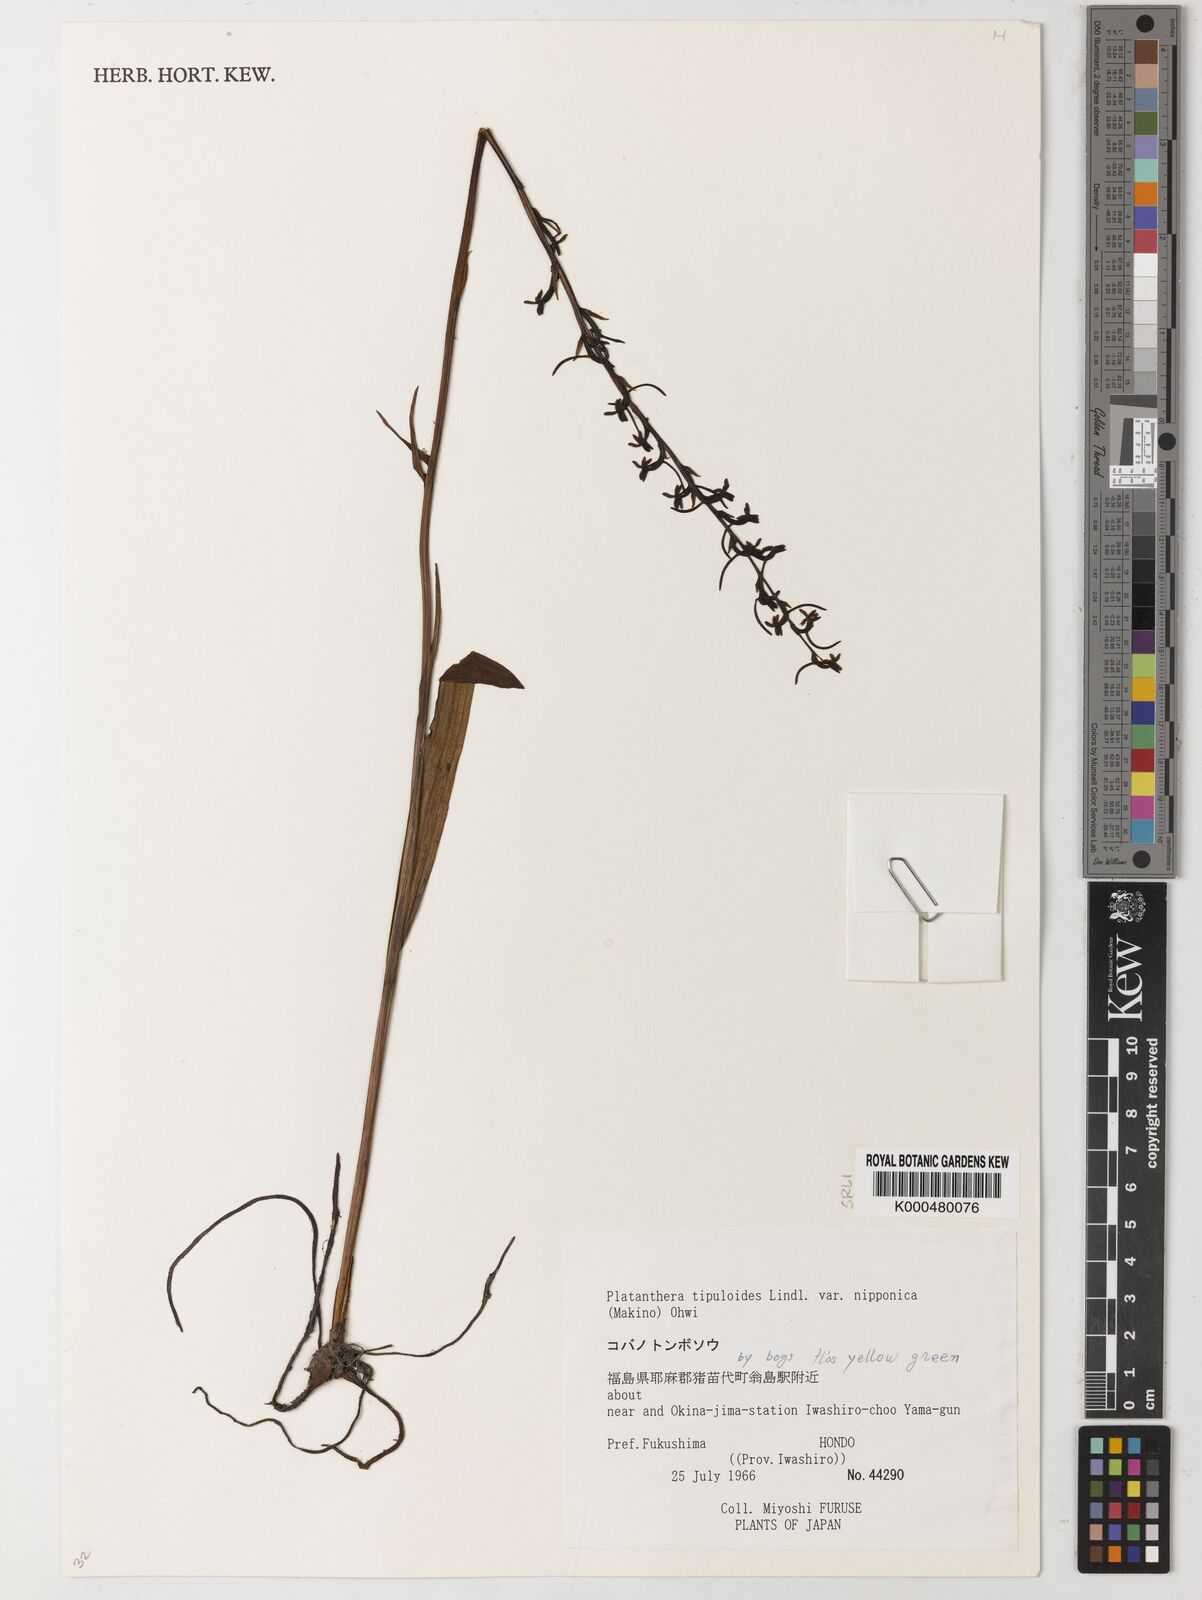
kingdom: Plantae
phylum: Tracheophyta
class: Liliopsida
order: Asparagales
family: Orchidaceae
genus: Platanthera
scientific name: Platanthera nipponica
